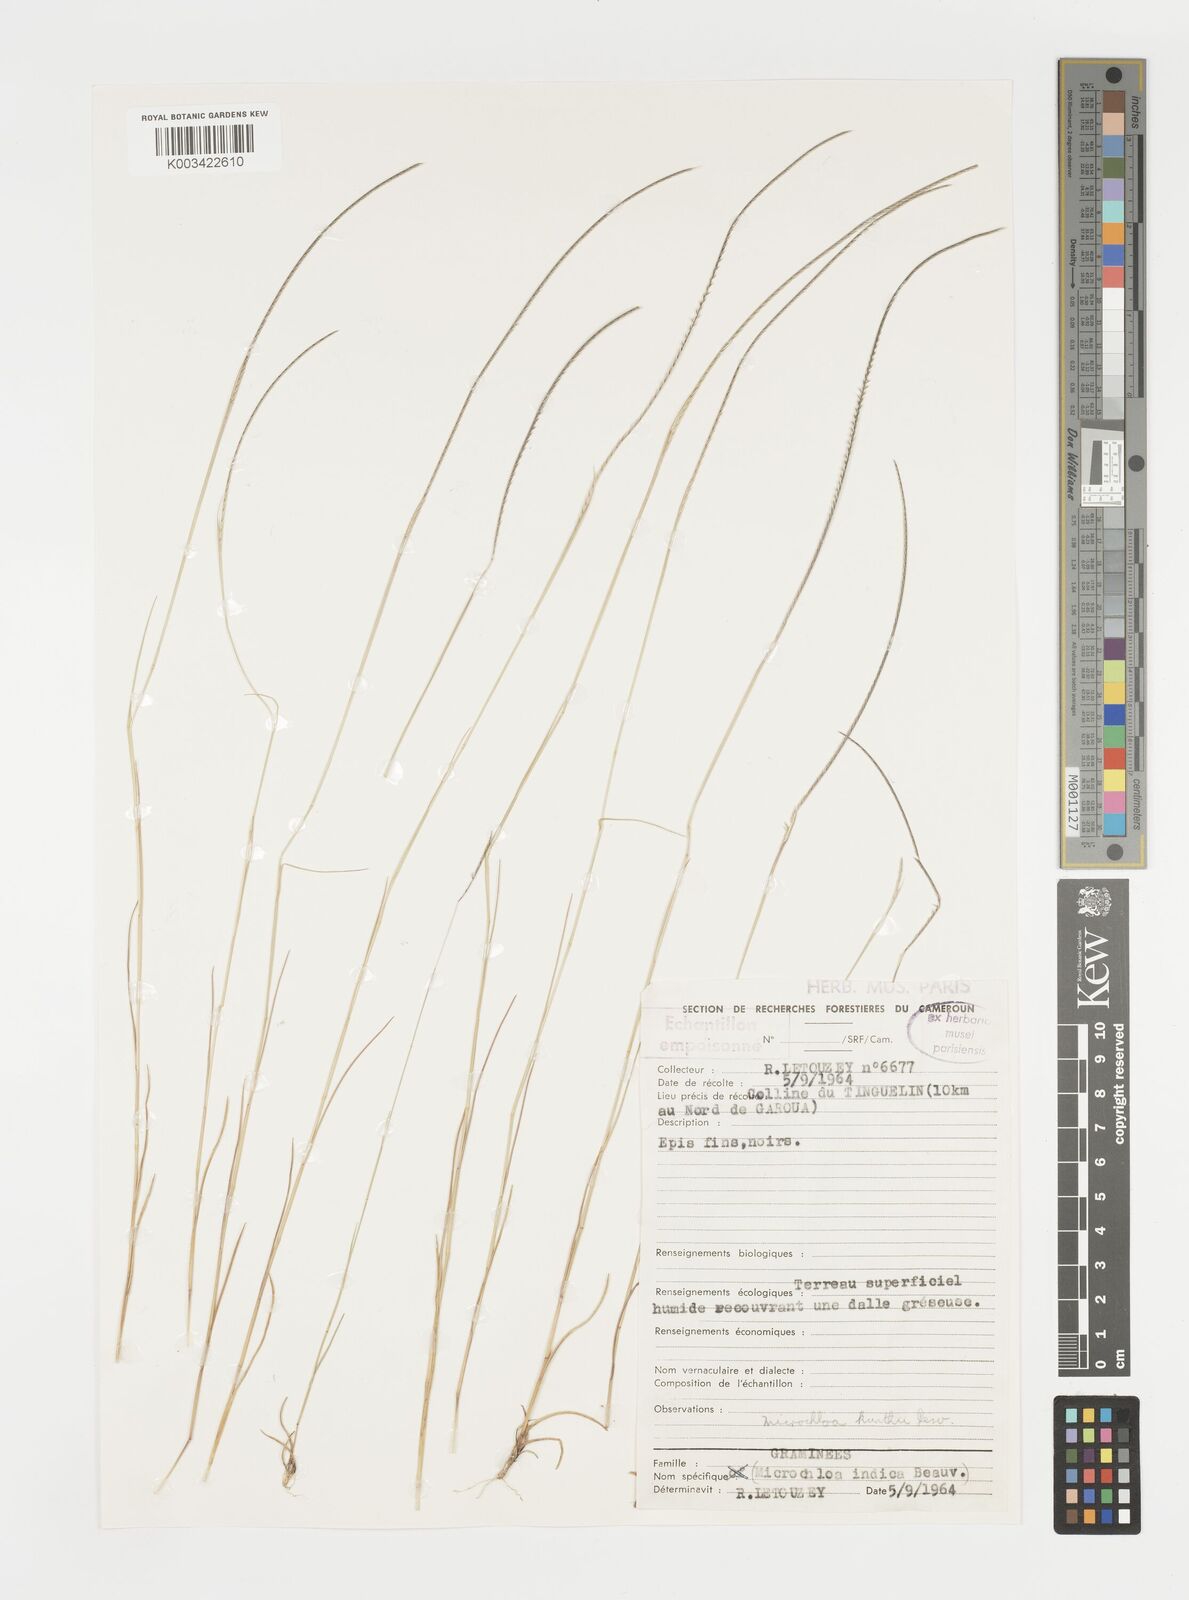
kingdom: Plantae
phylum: Tracheophyta
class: Liliopsida
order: Poales
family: Poaceae
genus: Microchloa
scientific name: Microchloa kunthii
